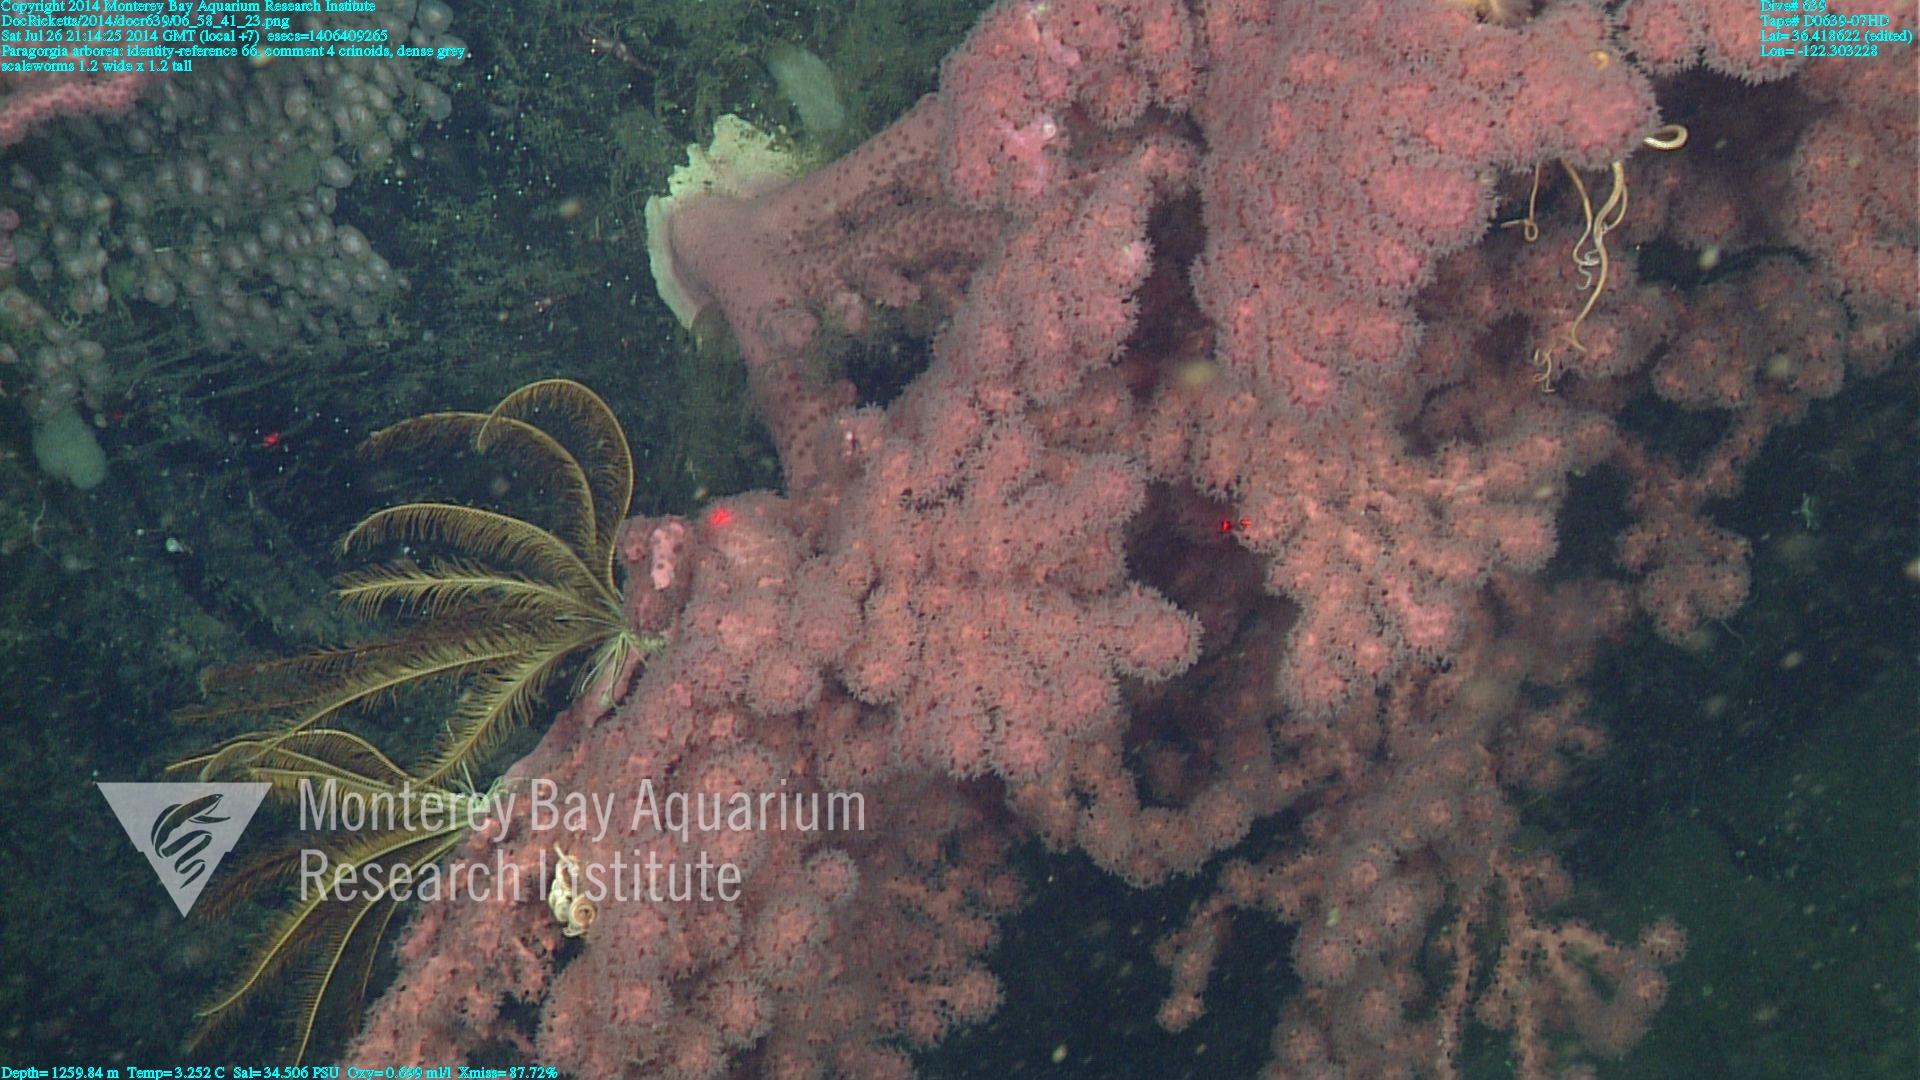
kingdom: Animalia
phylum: Cnidaria
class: Anthozoa
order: Scleralcyonacea
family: Coralliidae
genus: Paragorgia
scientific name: Paragorgia arborea
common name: Bubble gum coral
